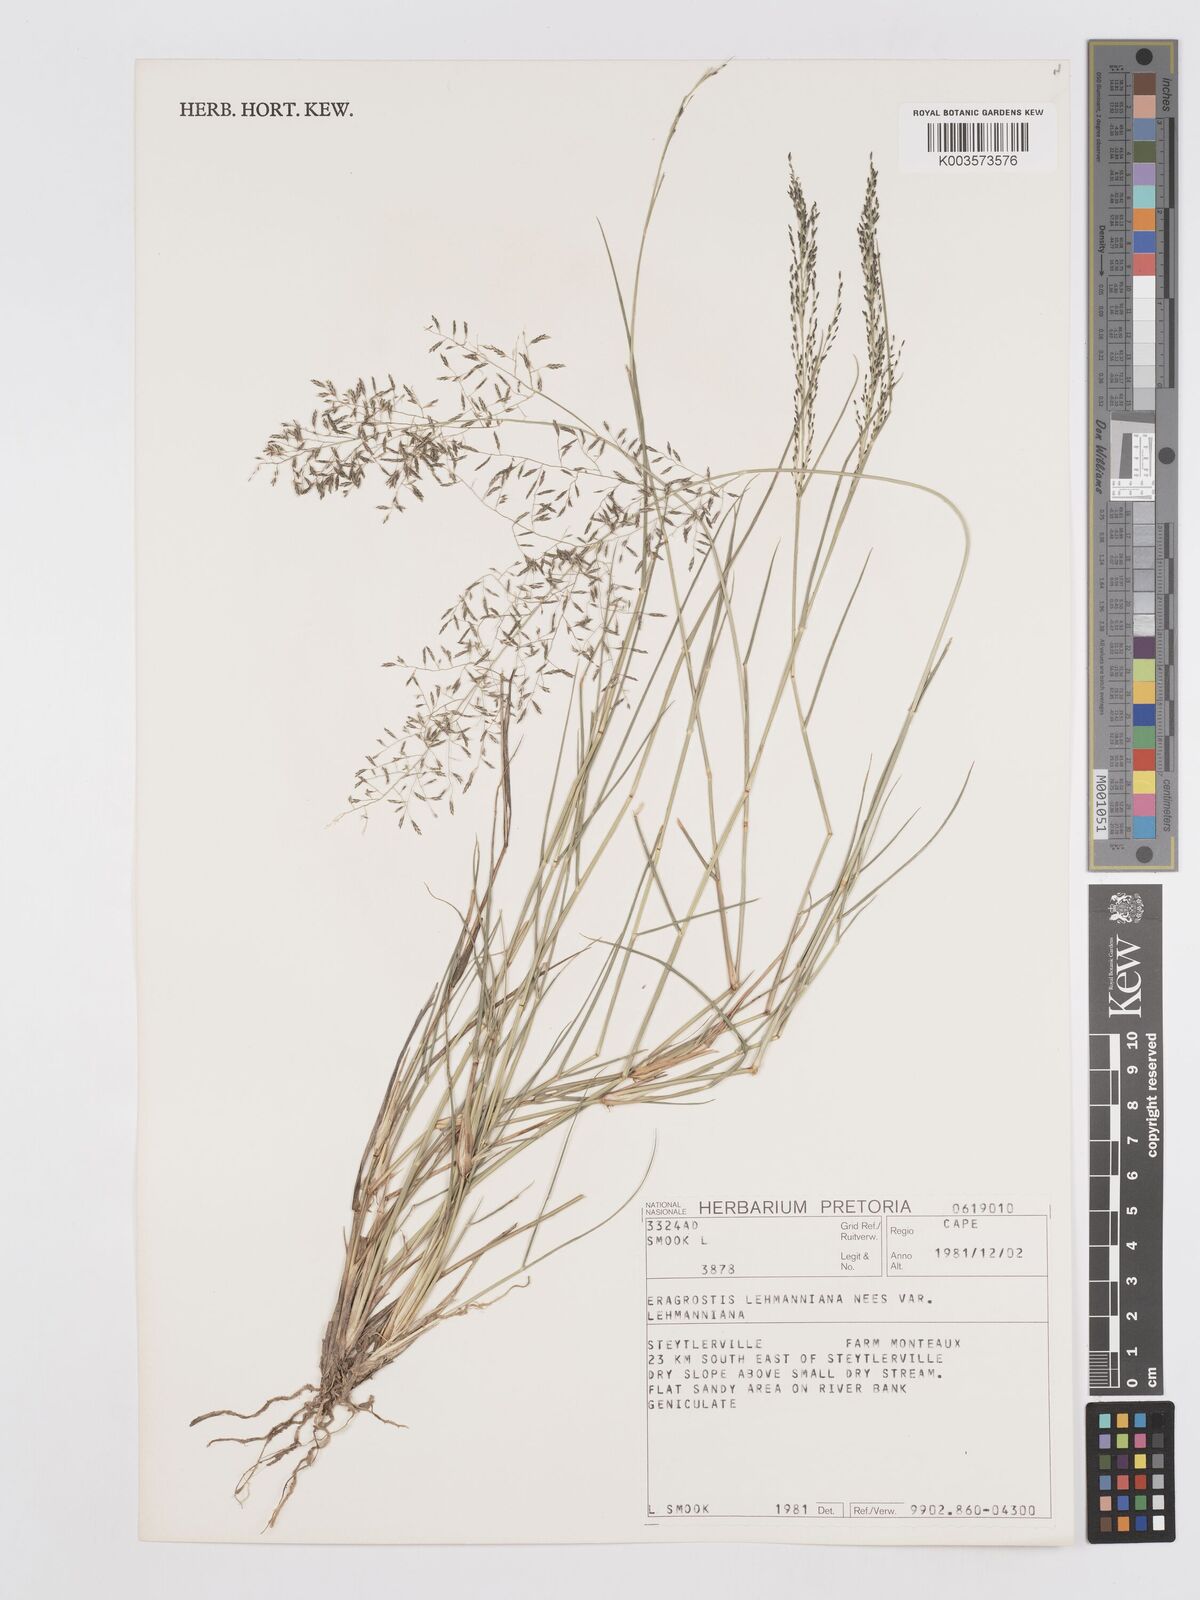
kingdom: Plantae
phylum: Tracheophyta
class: Liliopsida
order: Poales
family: Poaceae
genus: Eragrostis
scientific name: Eragrostis lehmanniana
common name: Lehmann lovegrass
